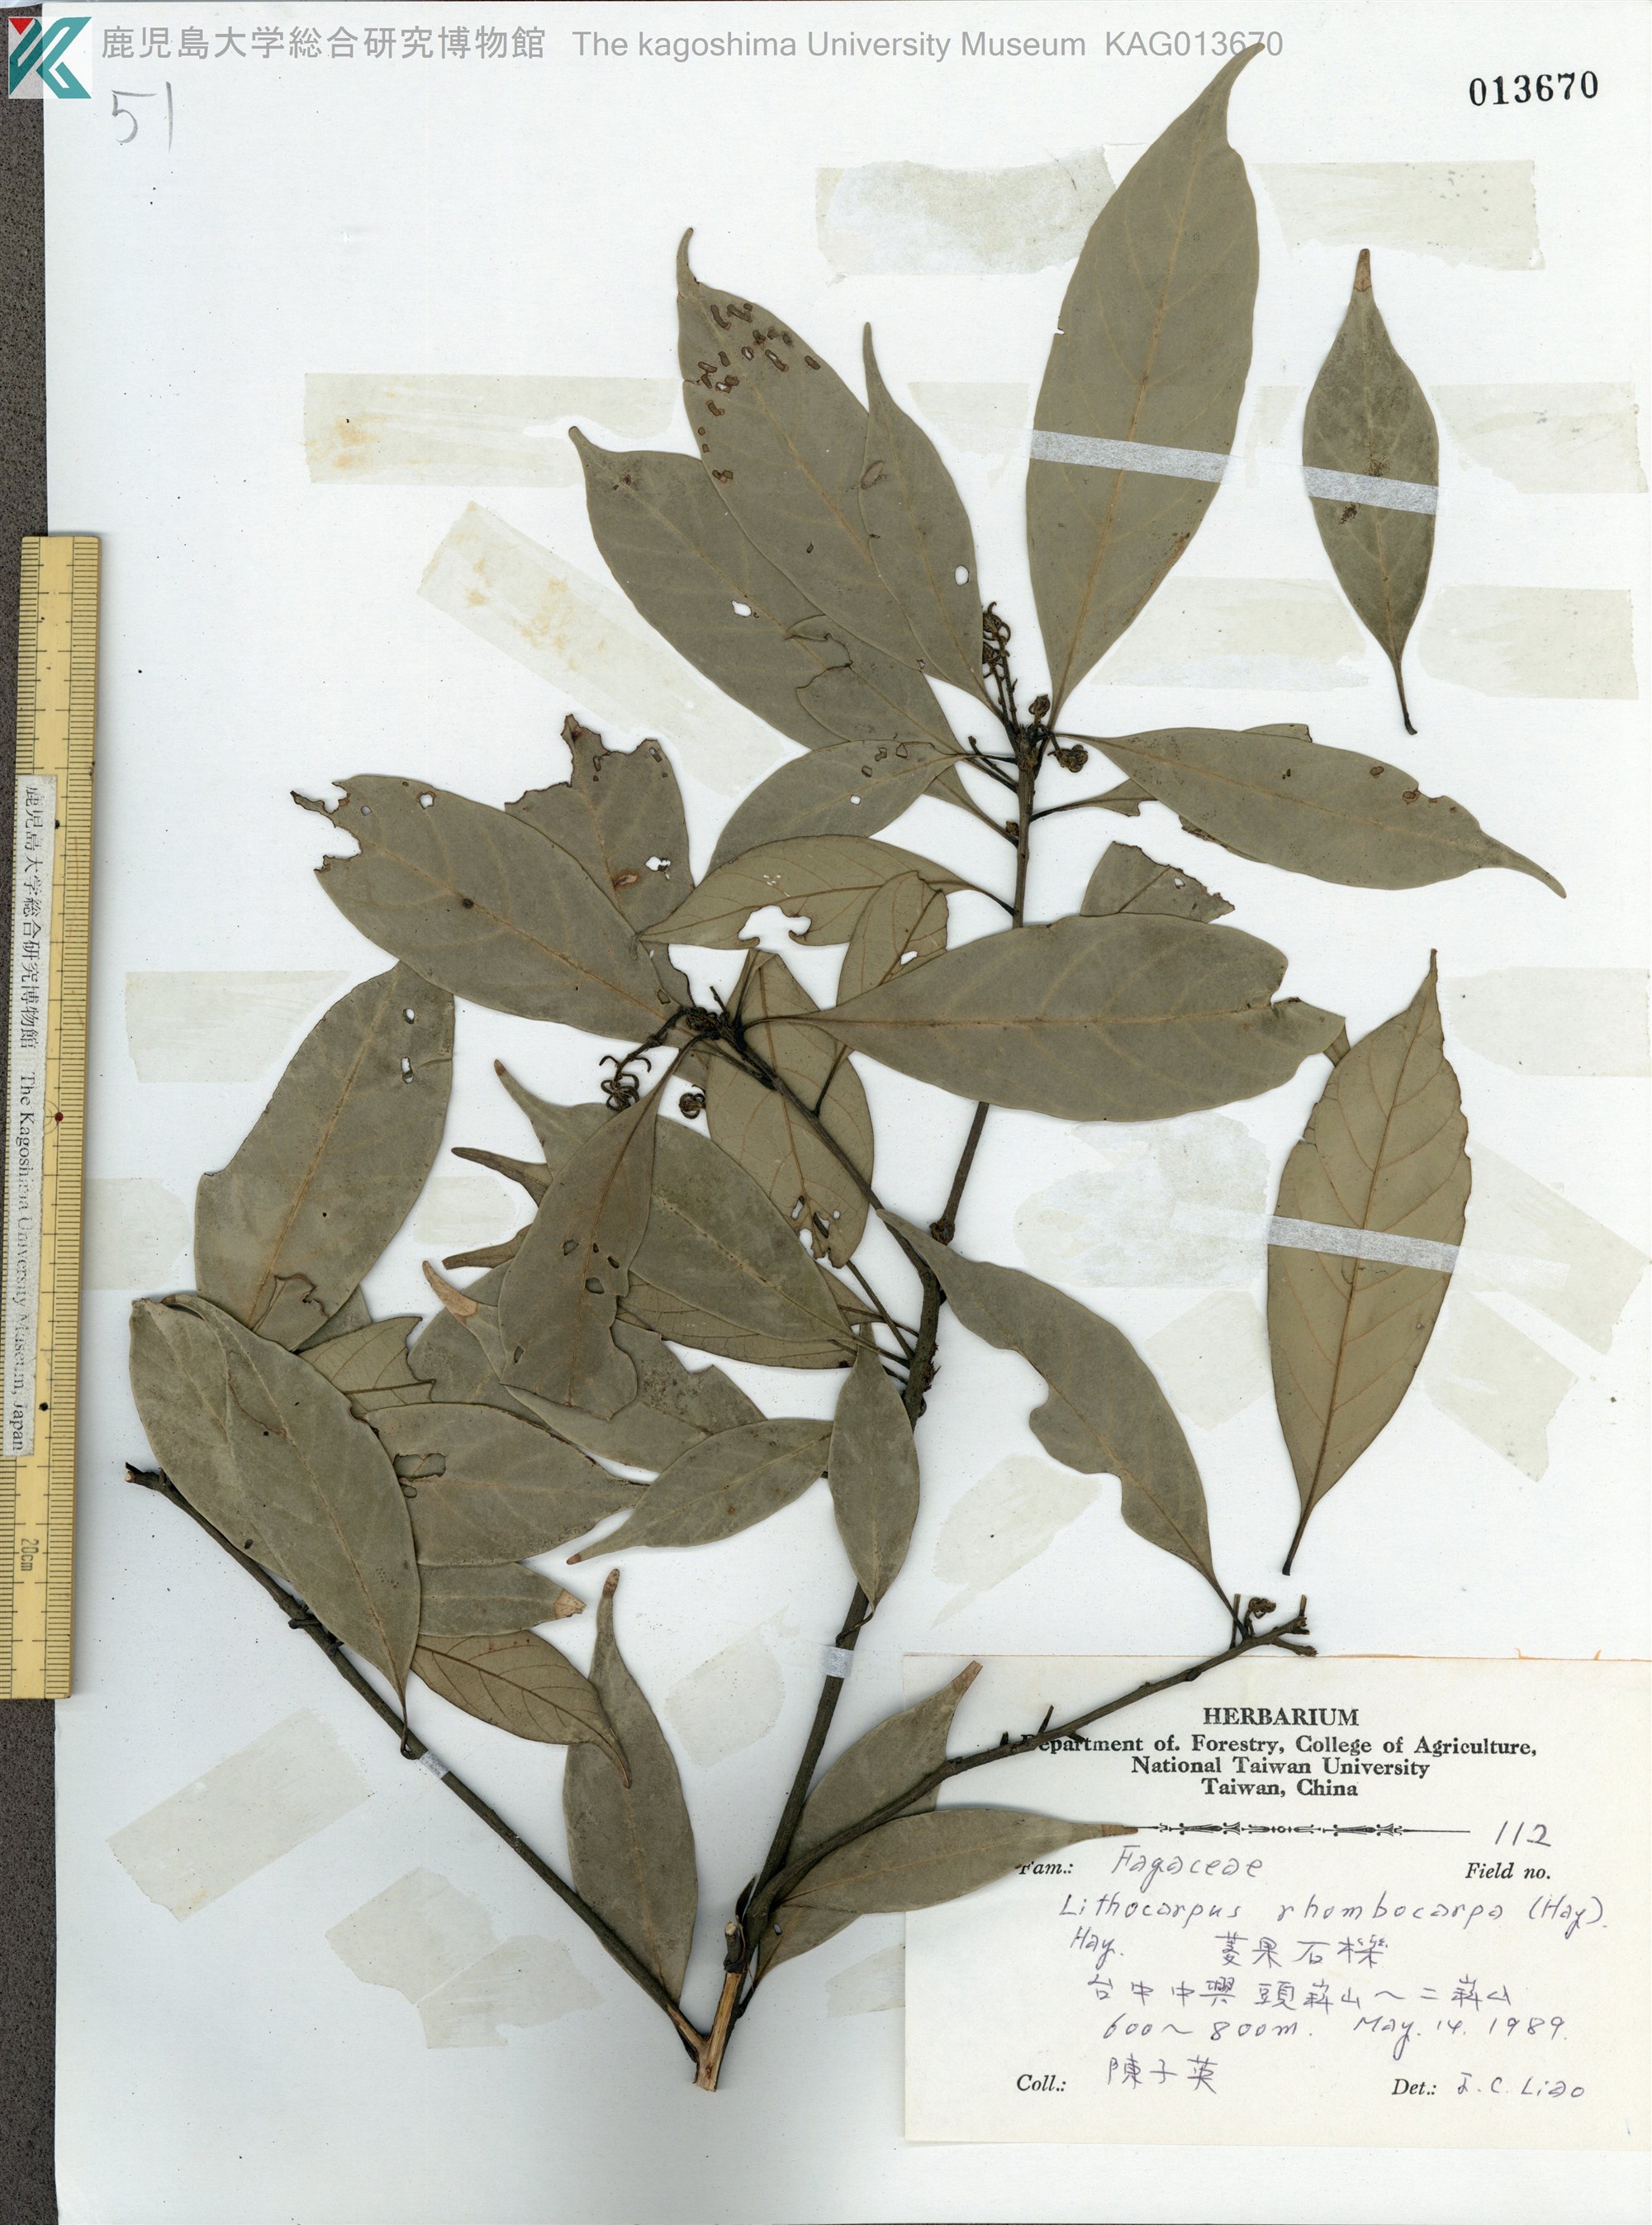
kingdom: Plantae
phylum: Tracheophyta
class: Magnoliopsida
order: Fagales
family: Fagaceae
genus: Lithocarpus
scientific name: Lithocarpus taitoensis
